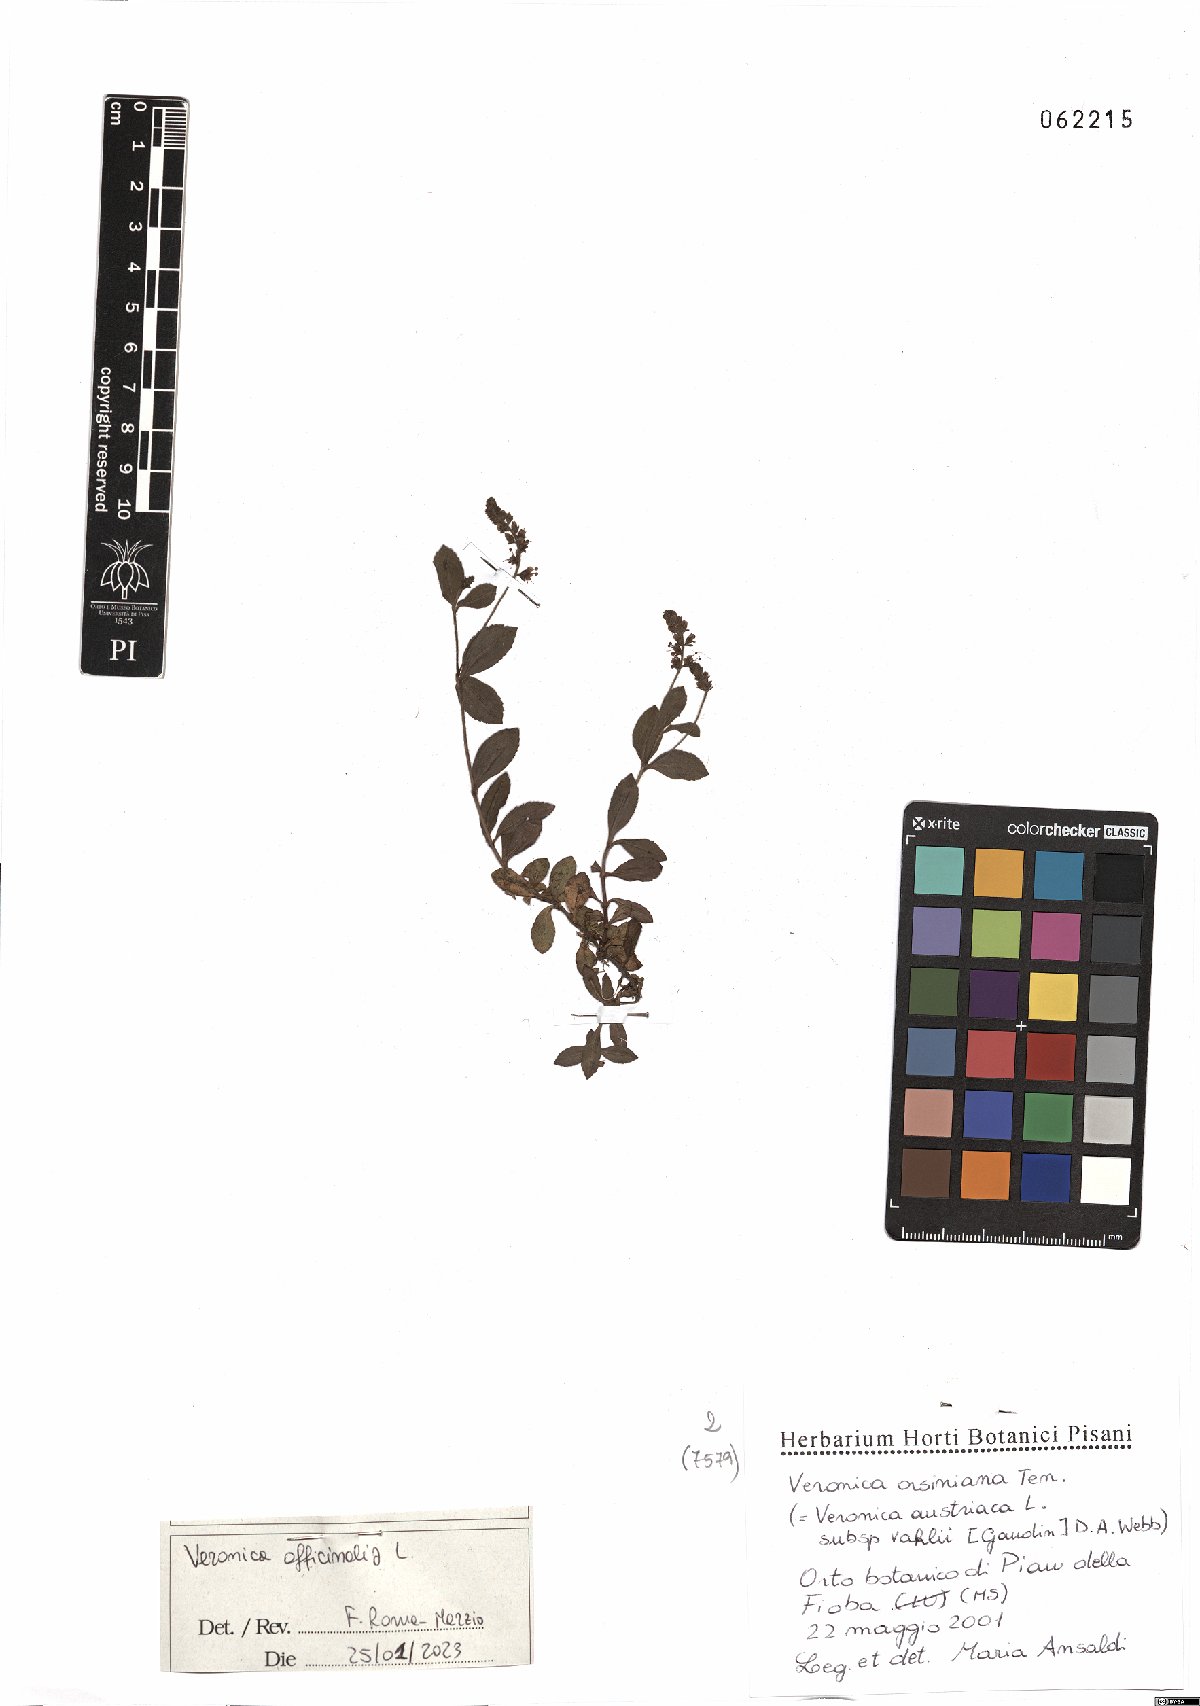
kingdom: Plantae
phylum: Tracheophyta
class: Magnoliopsida
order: Lamiales
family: Plantaginaceae
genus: Veronica
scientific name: Veronica officinalis
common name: Common speedwell
